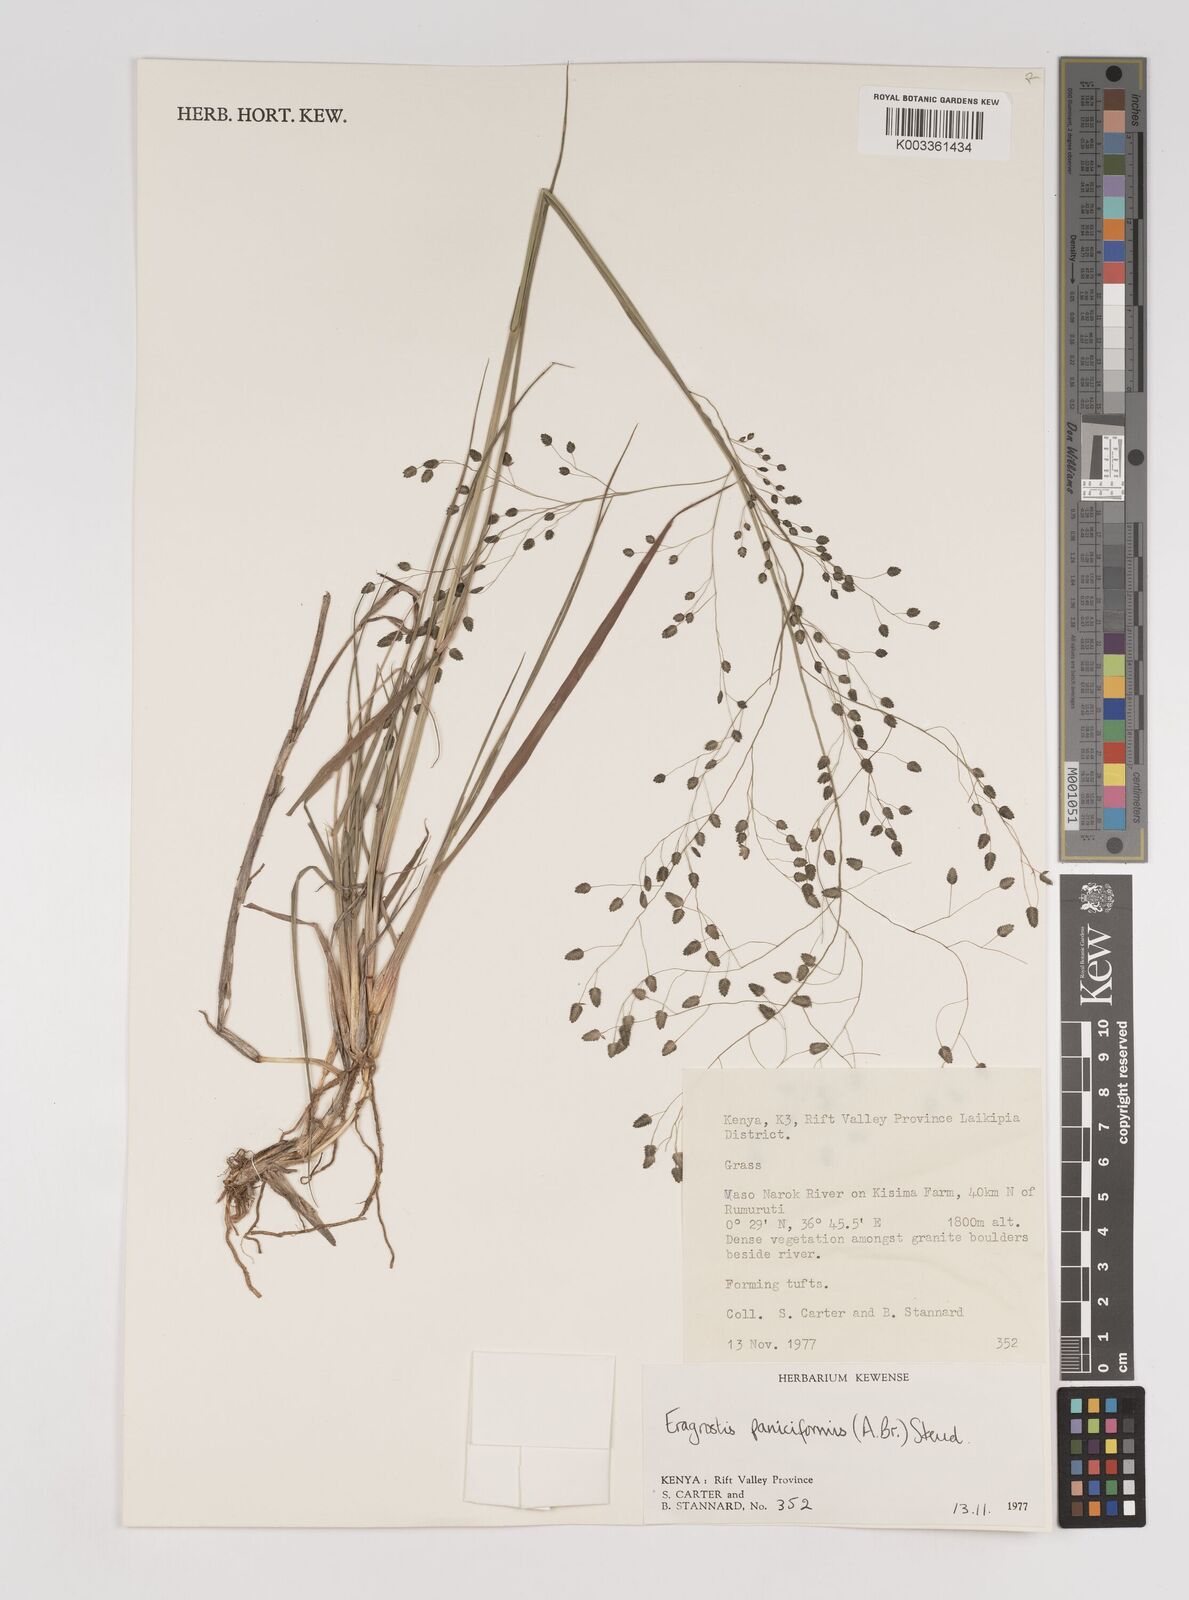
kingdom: Plantae
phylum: Tracheophyta
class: Liliopsida
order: Poales
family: Poaceae
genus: Eragrostis
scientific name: Eragrostis paniciformis
